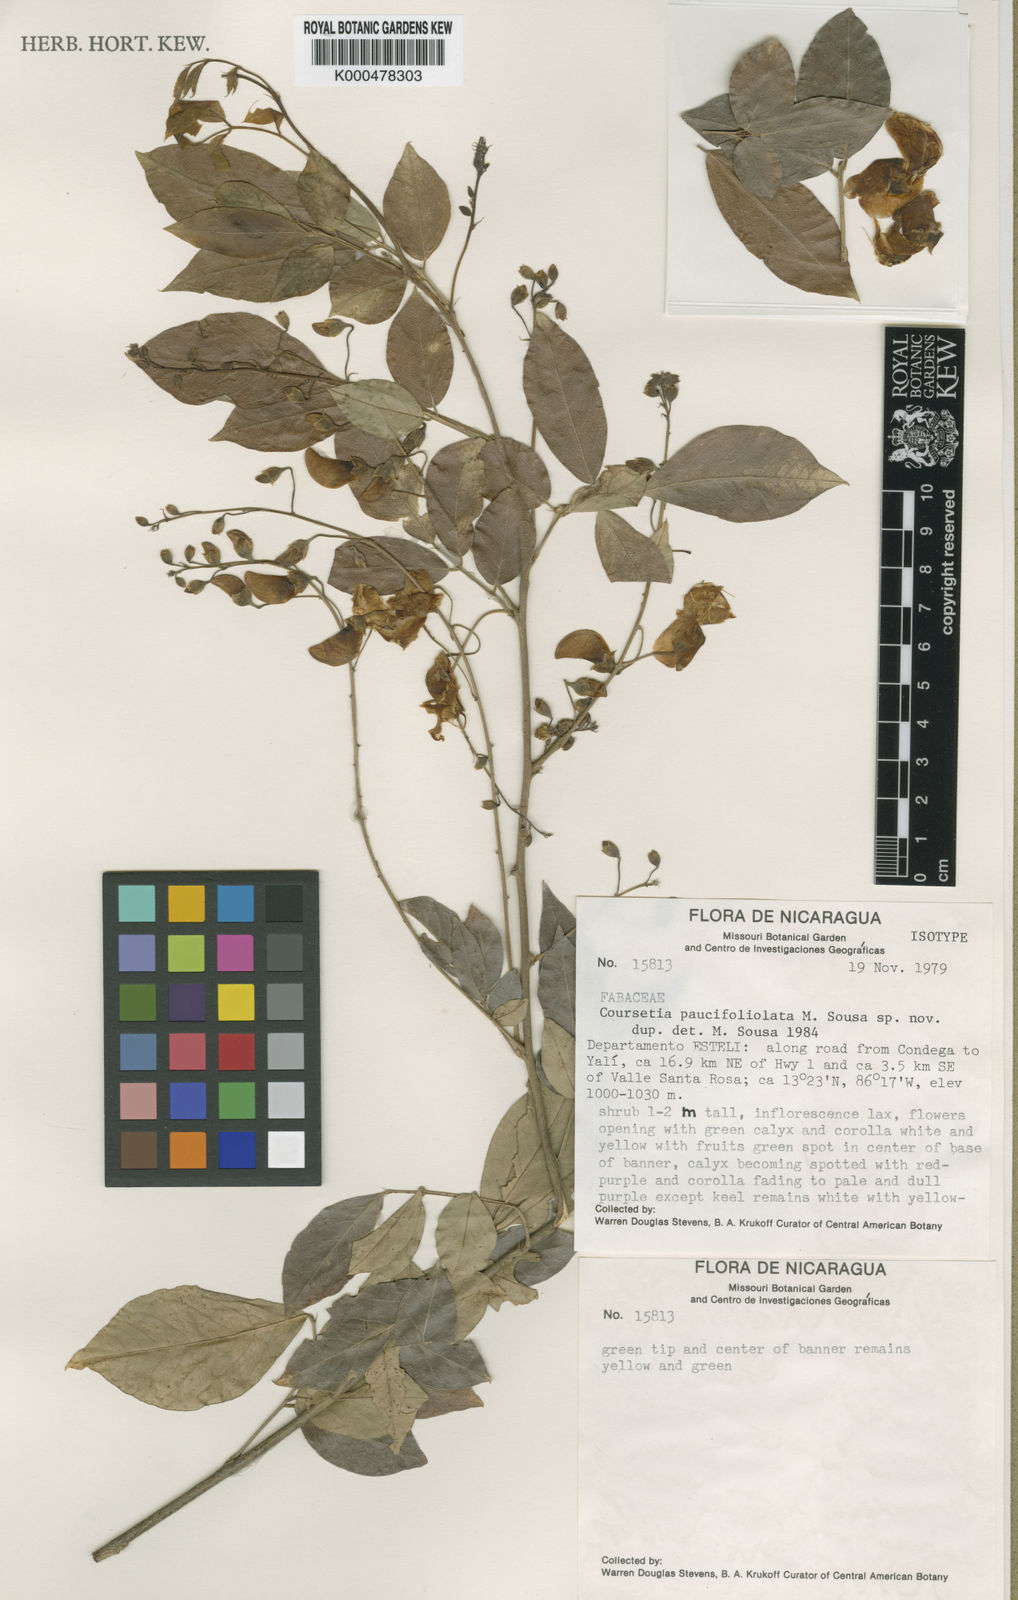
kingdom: Plantae
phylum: Tracheophyta
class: Magnoliopsida
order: Fabales
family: Fabaceae
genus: Coursetia
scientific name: Coursetia apantensis
